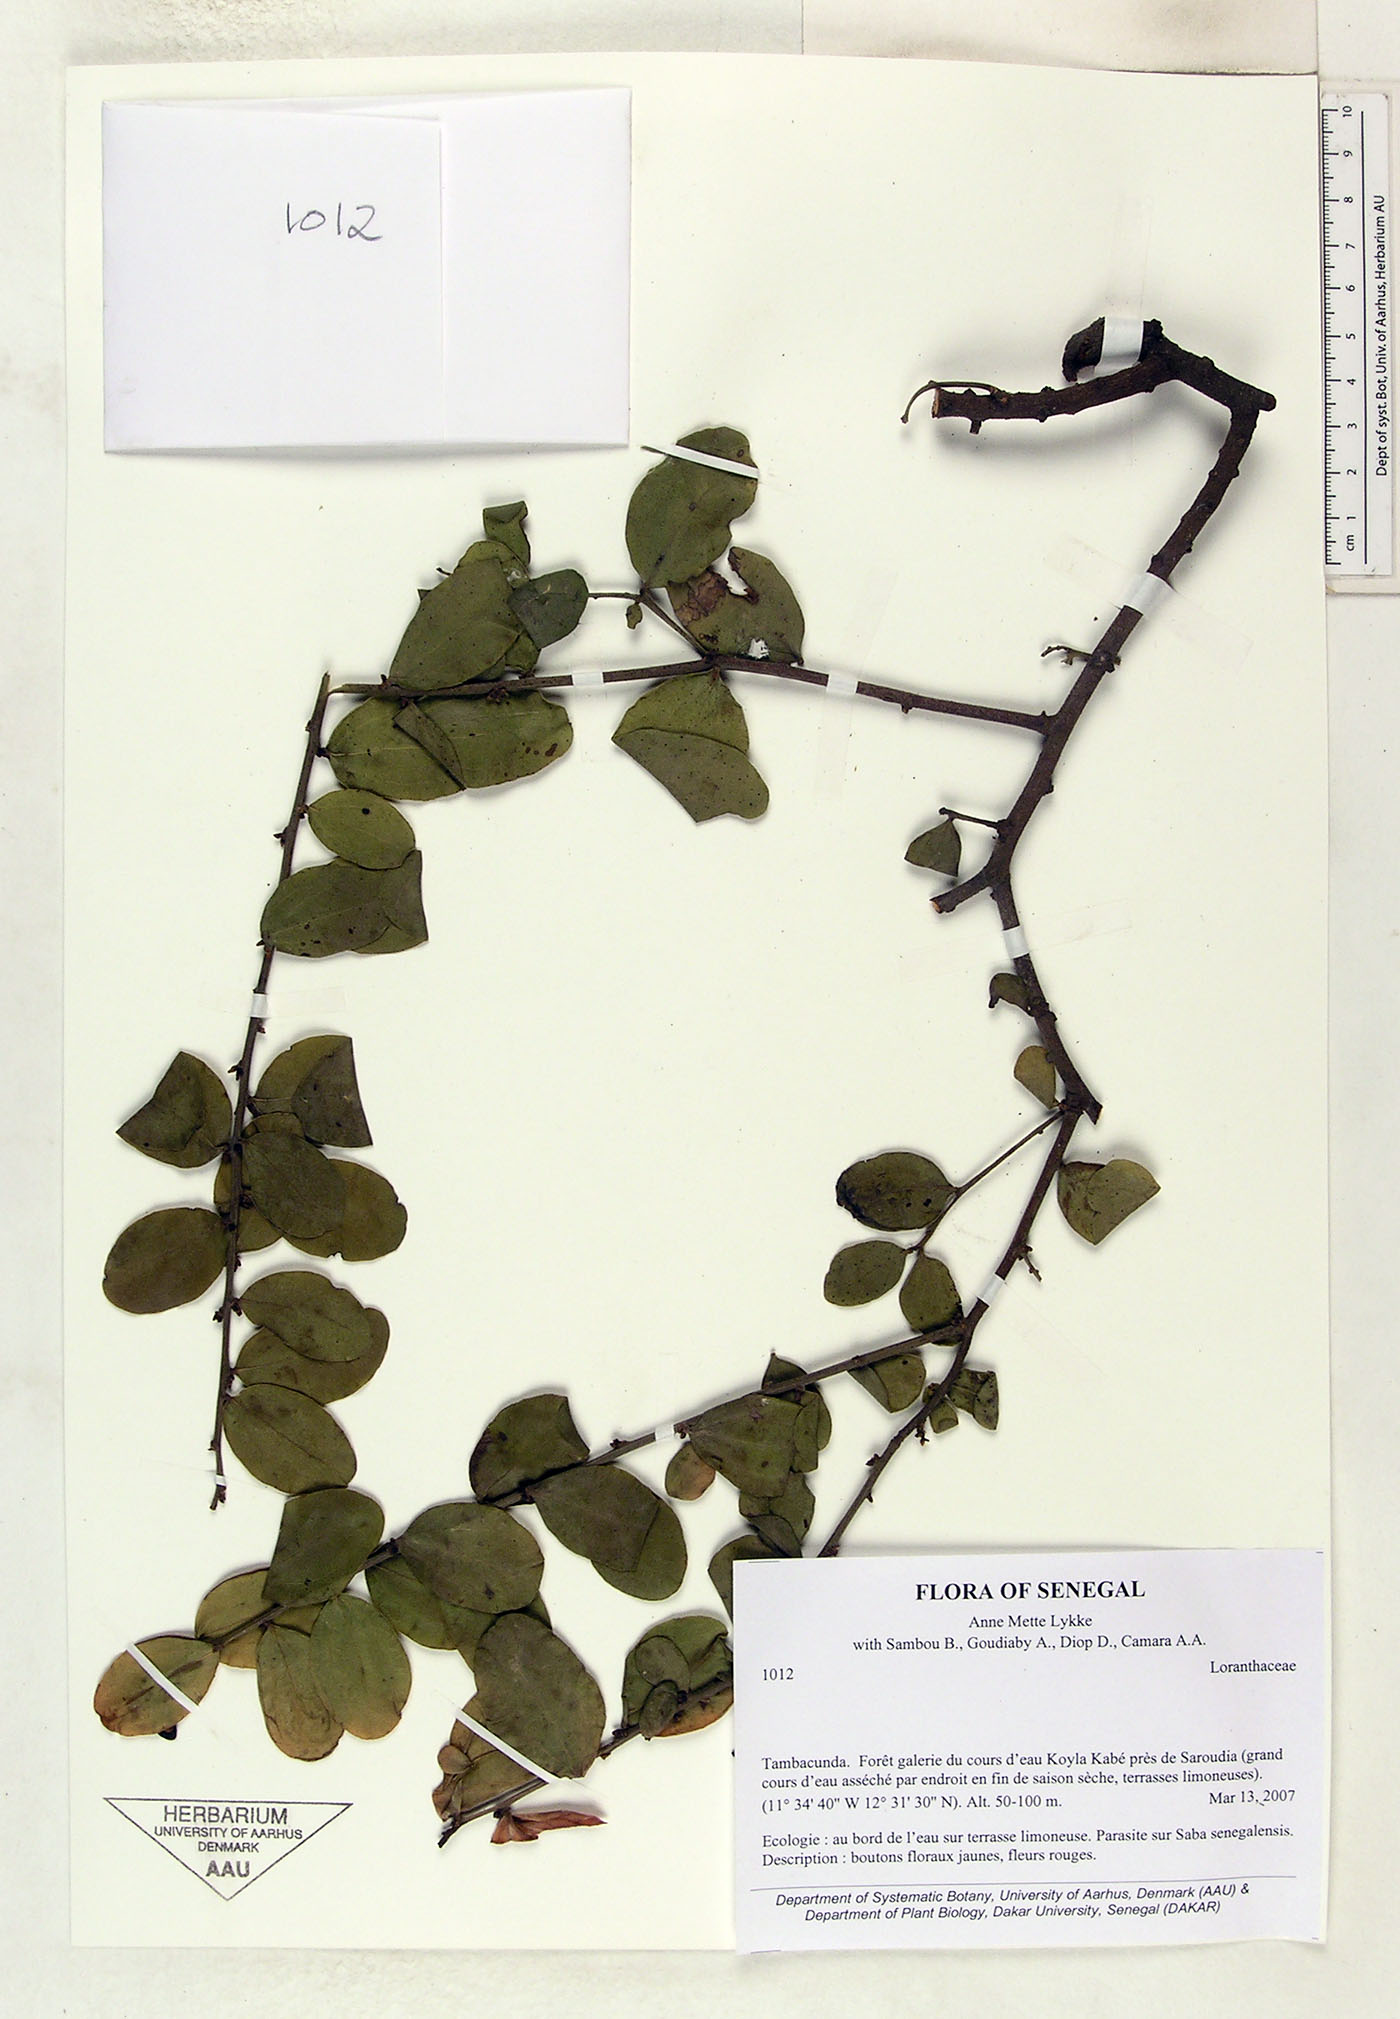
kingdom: Plantae
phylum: Tracheophyta
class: Magnoliopsida
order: Santalales
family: Loranthaceae
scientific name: Loranthaceae
